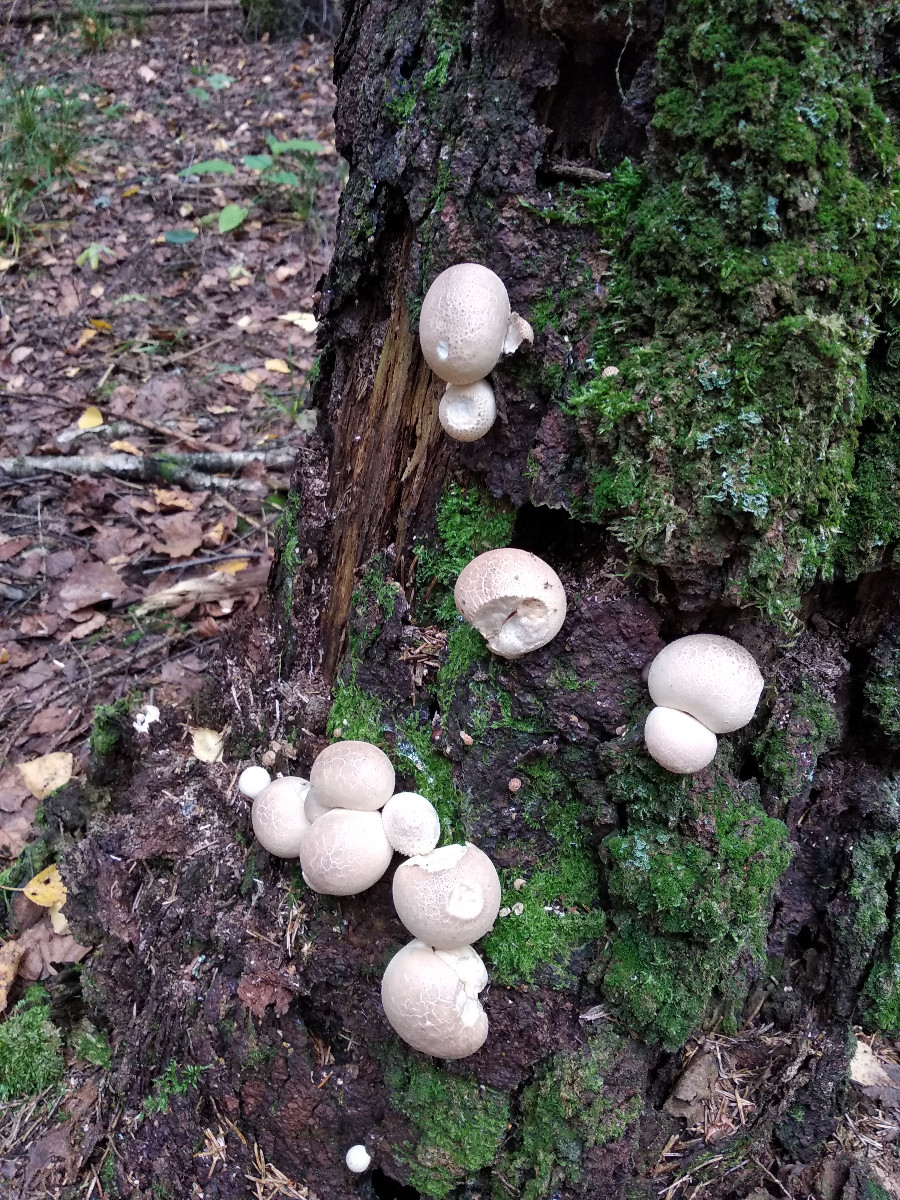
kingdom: Fungi
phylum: Basidiomycota
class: Agaricomycetes
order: Agaricales
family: Lycoperdaceae
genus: Apioperdon
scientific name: Apioperdon pyriforme
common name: pære-støvbold
